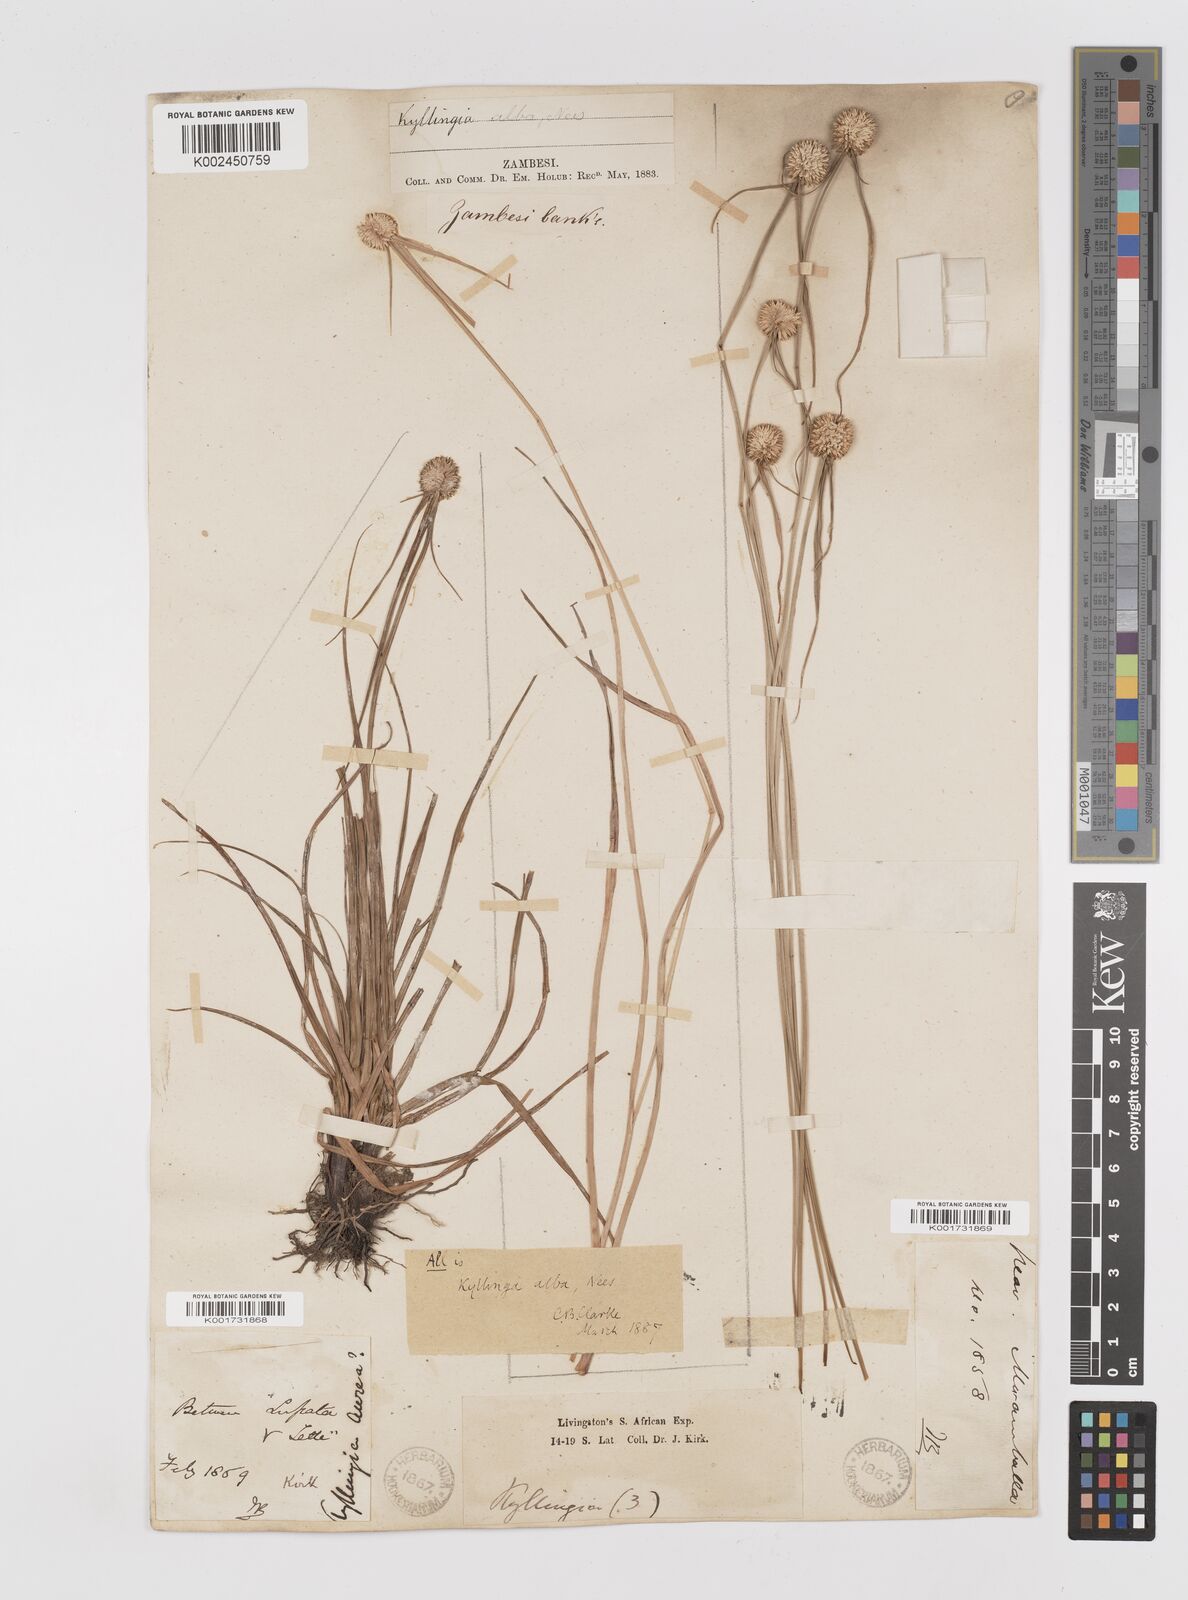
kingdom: Plantae
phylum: Tracheophyta
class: Liliopsida
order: Poales
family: Cyperaceae
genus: Cyperus
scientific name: Cyperus rukwanus
